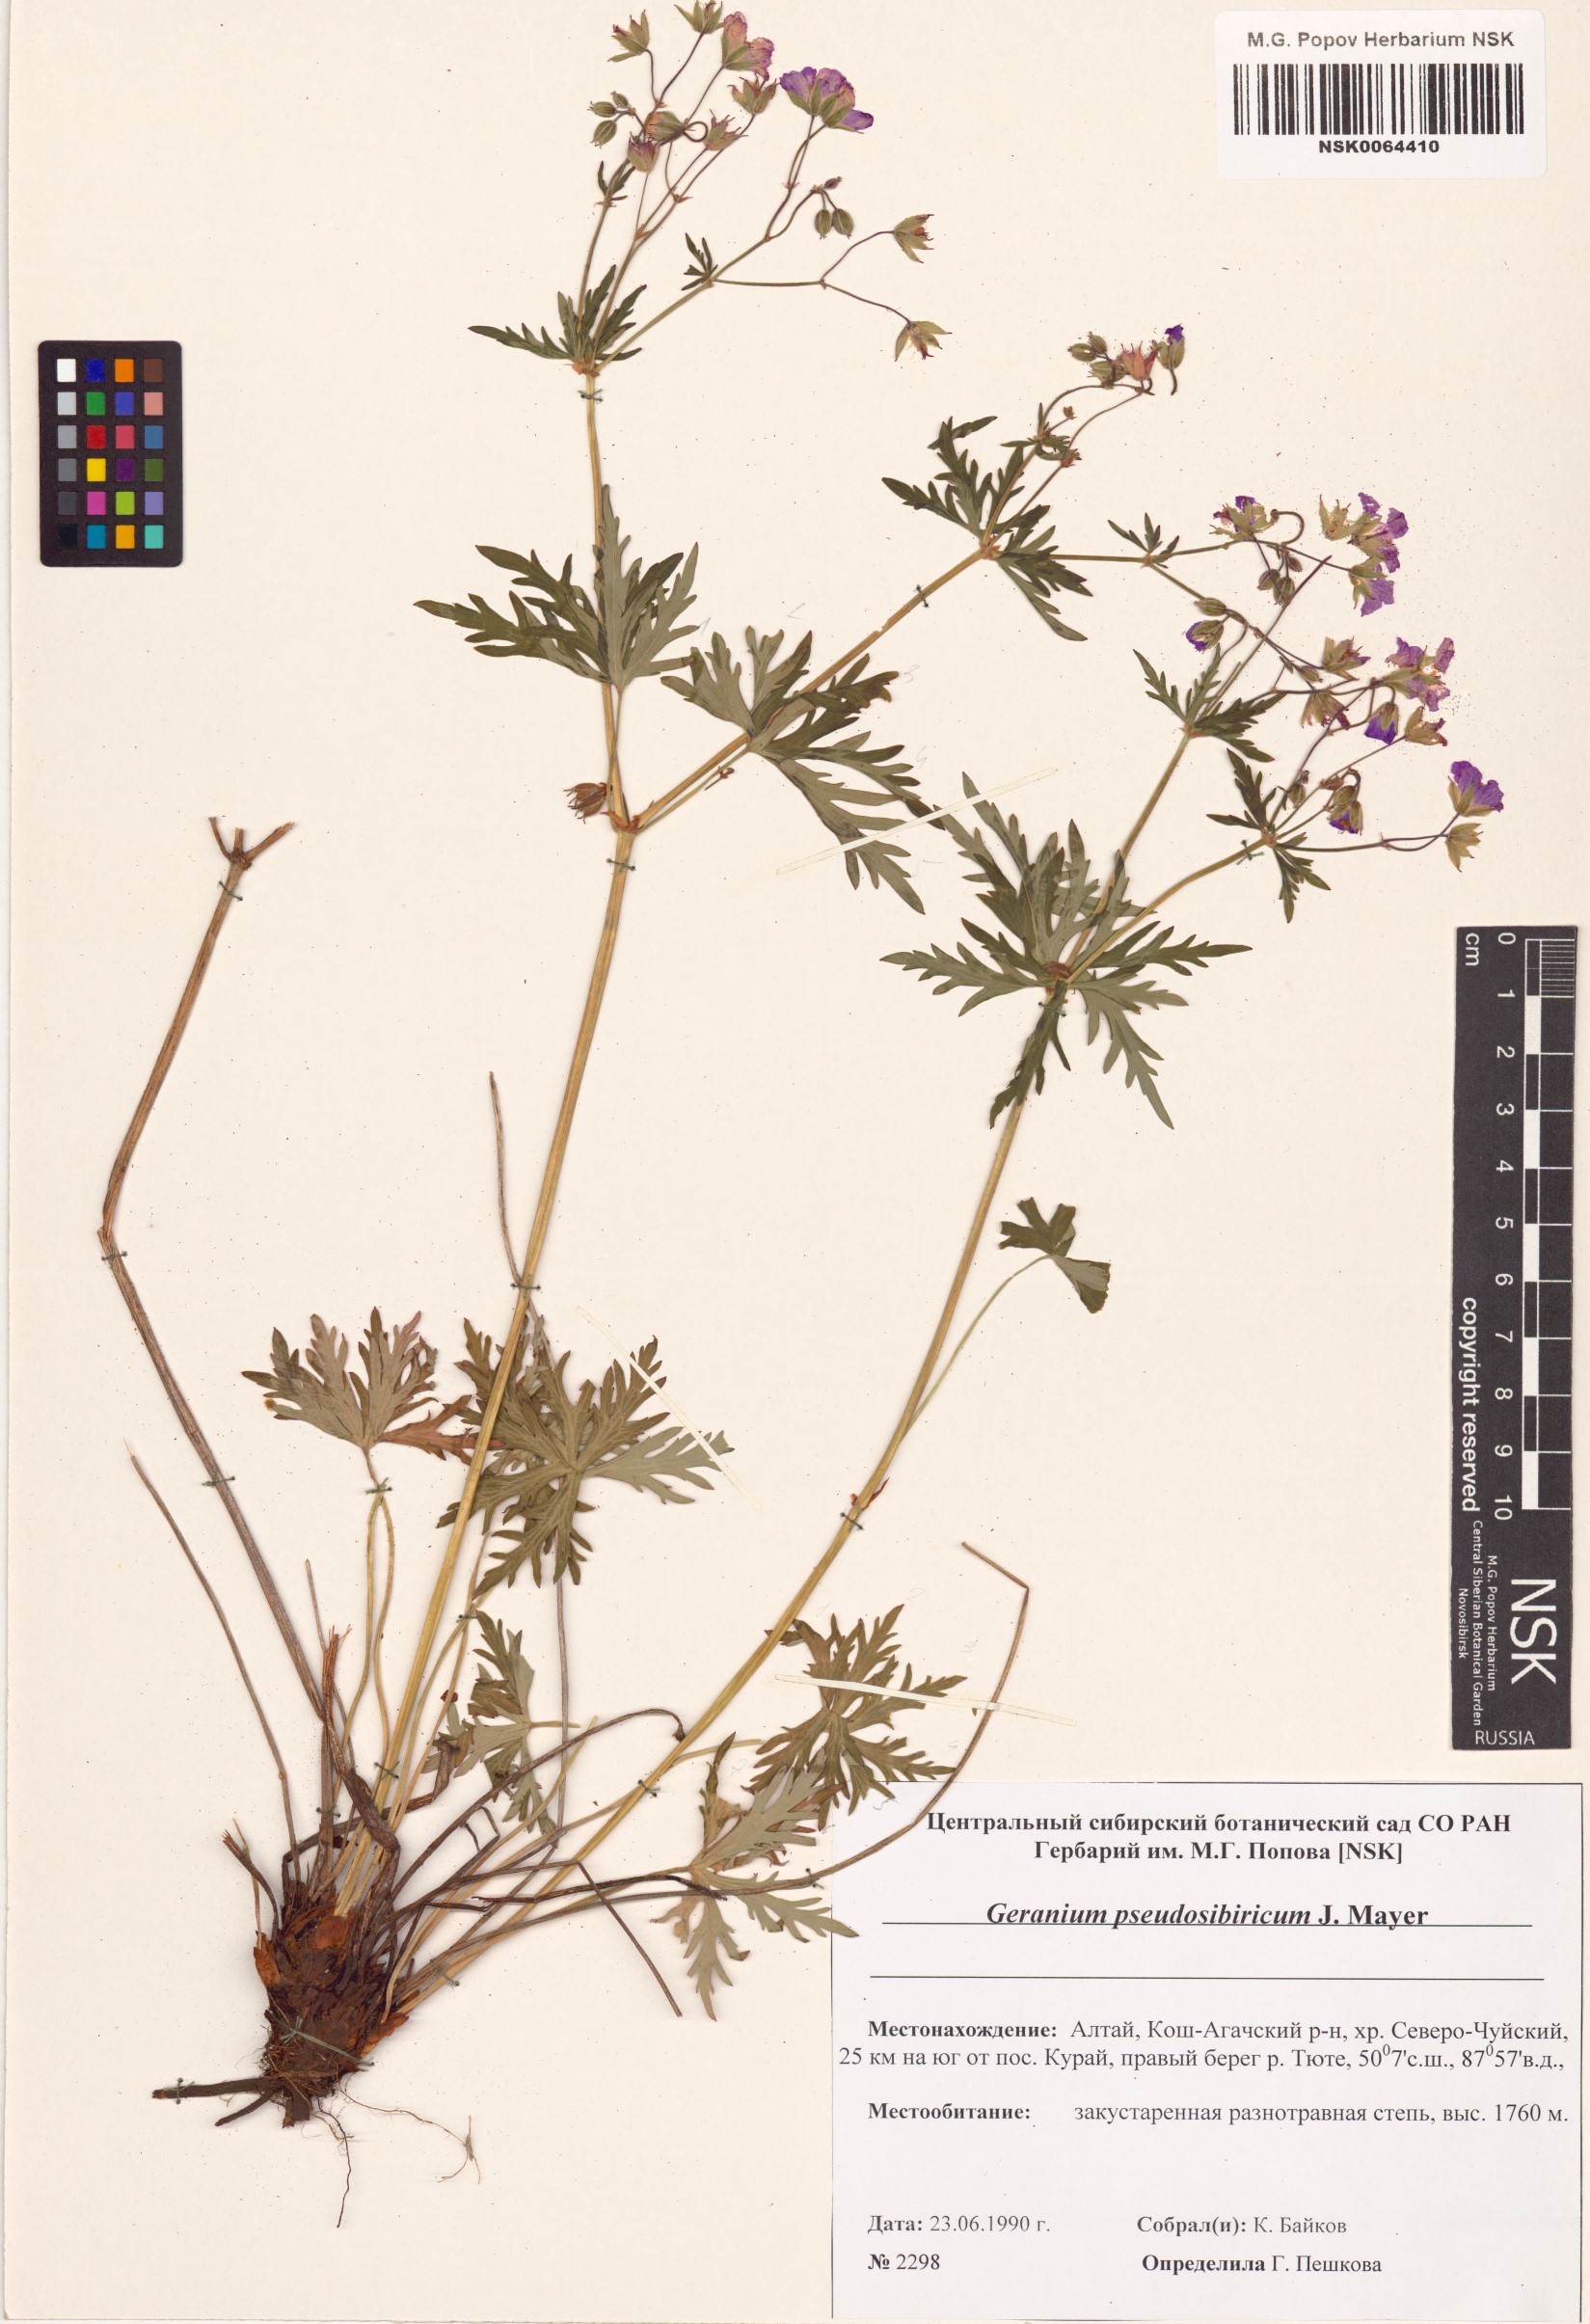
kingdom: Plantae
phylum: Tracheophyta
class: Magnoliopsida
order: Geraniales
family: Geraniaceae
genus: Geranium
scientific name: Geranium pseudosibiricum
